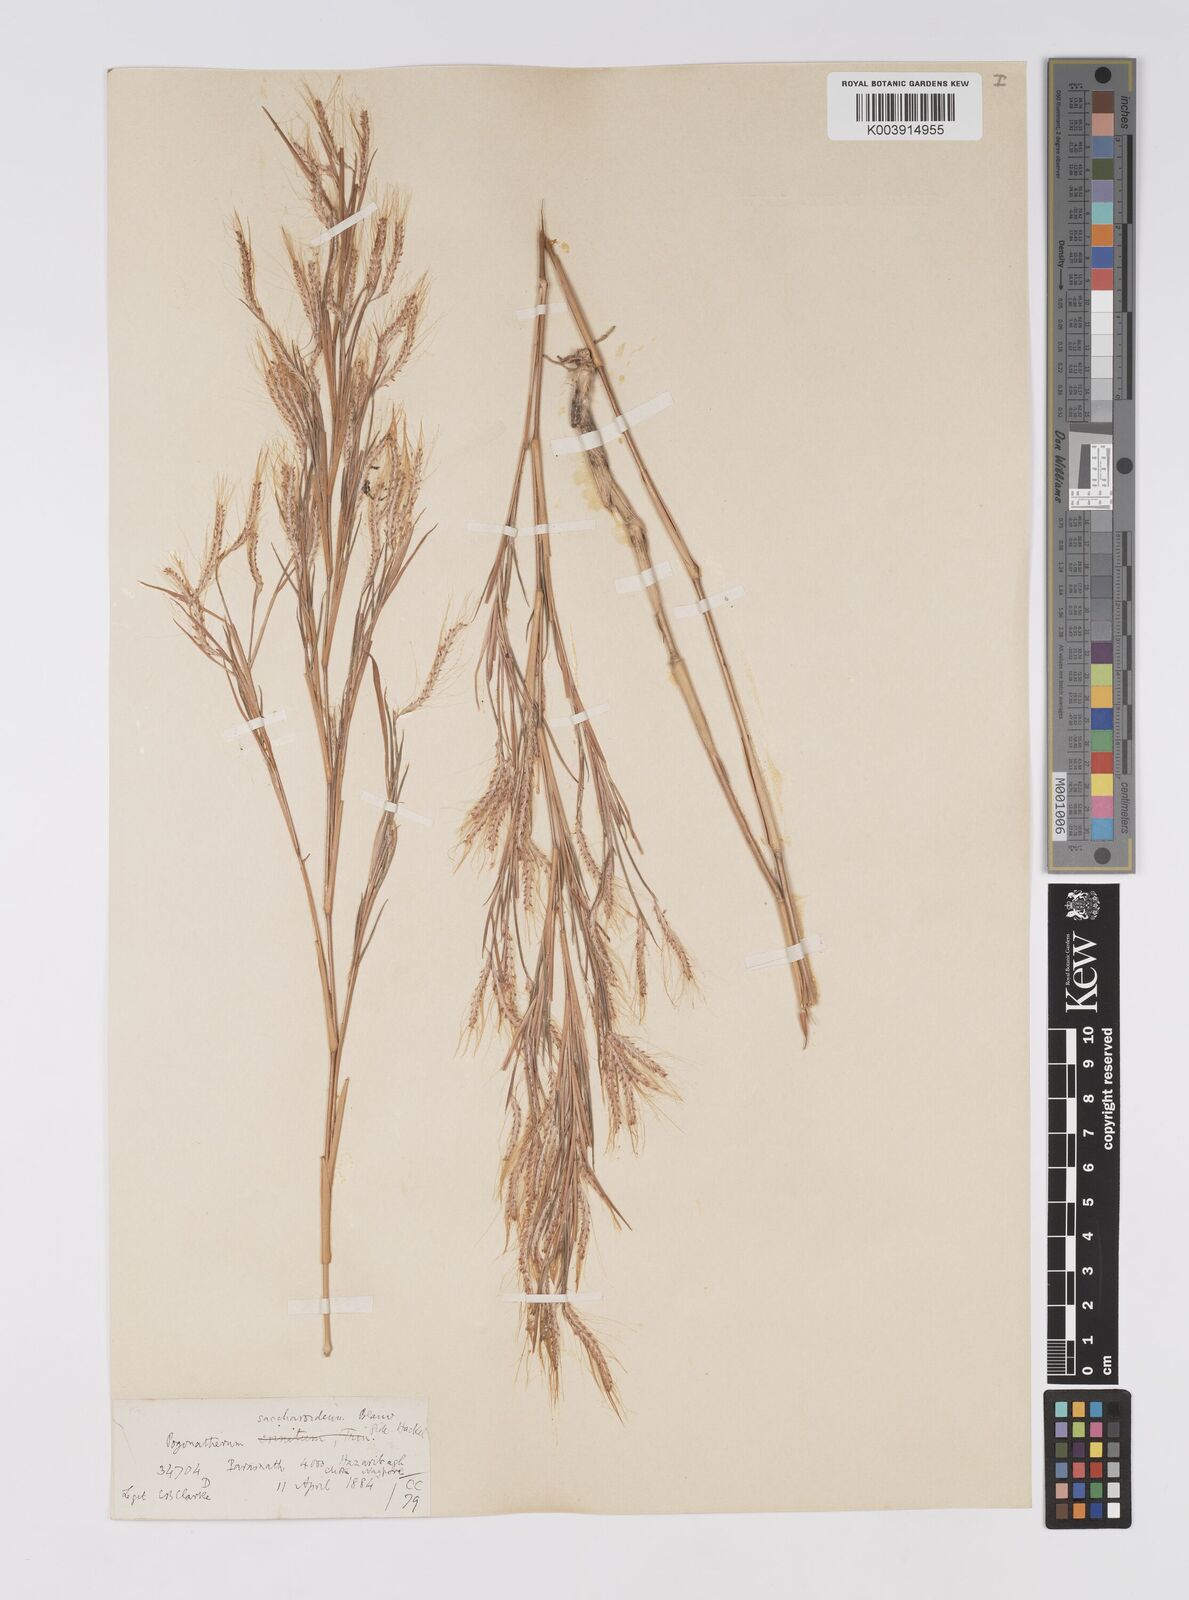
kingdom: Plantae
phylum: Tracheophyta
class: Liliopsida
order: Poales
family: Poaceae
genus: Pogonatherum
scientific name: Pogonatherum paniceum
